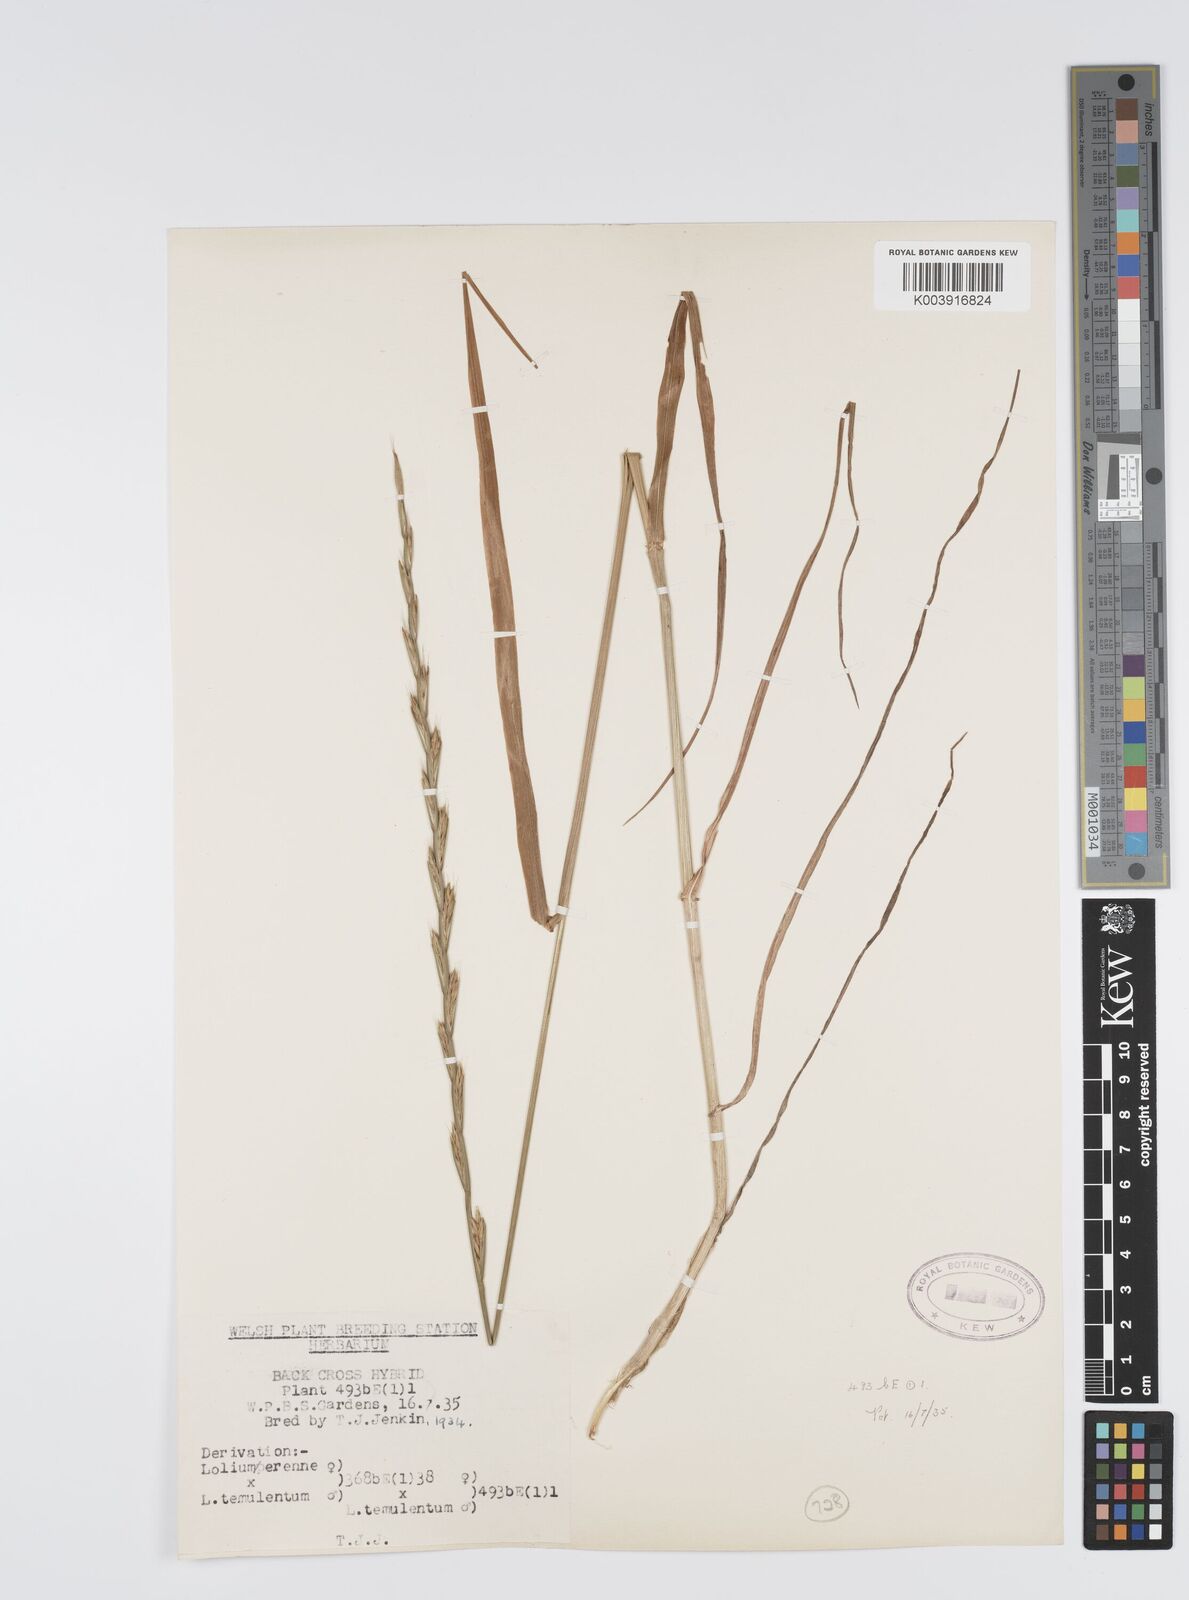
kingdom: Plantae
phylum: Tracheophyta
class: Liliopsida
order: Poales
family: Poaceae
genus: Lolium
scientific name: Lolium perenne
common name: Perennial ryegrass
